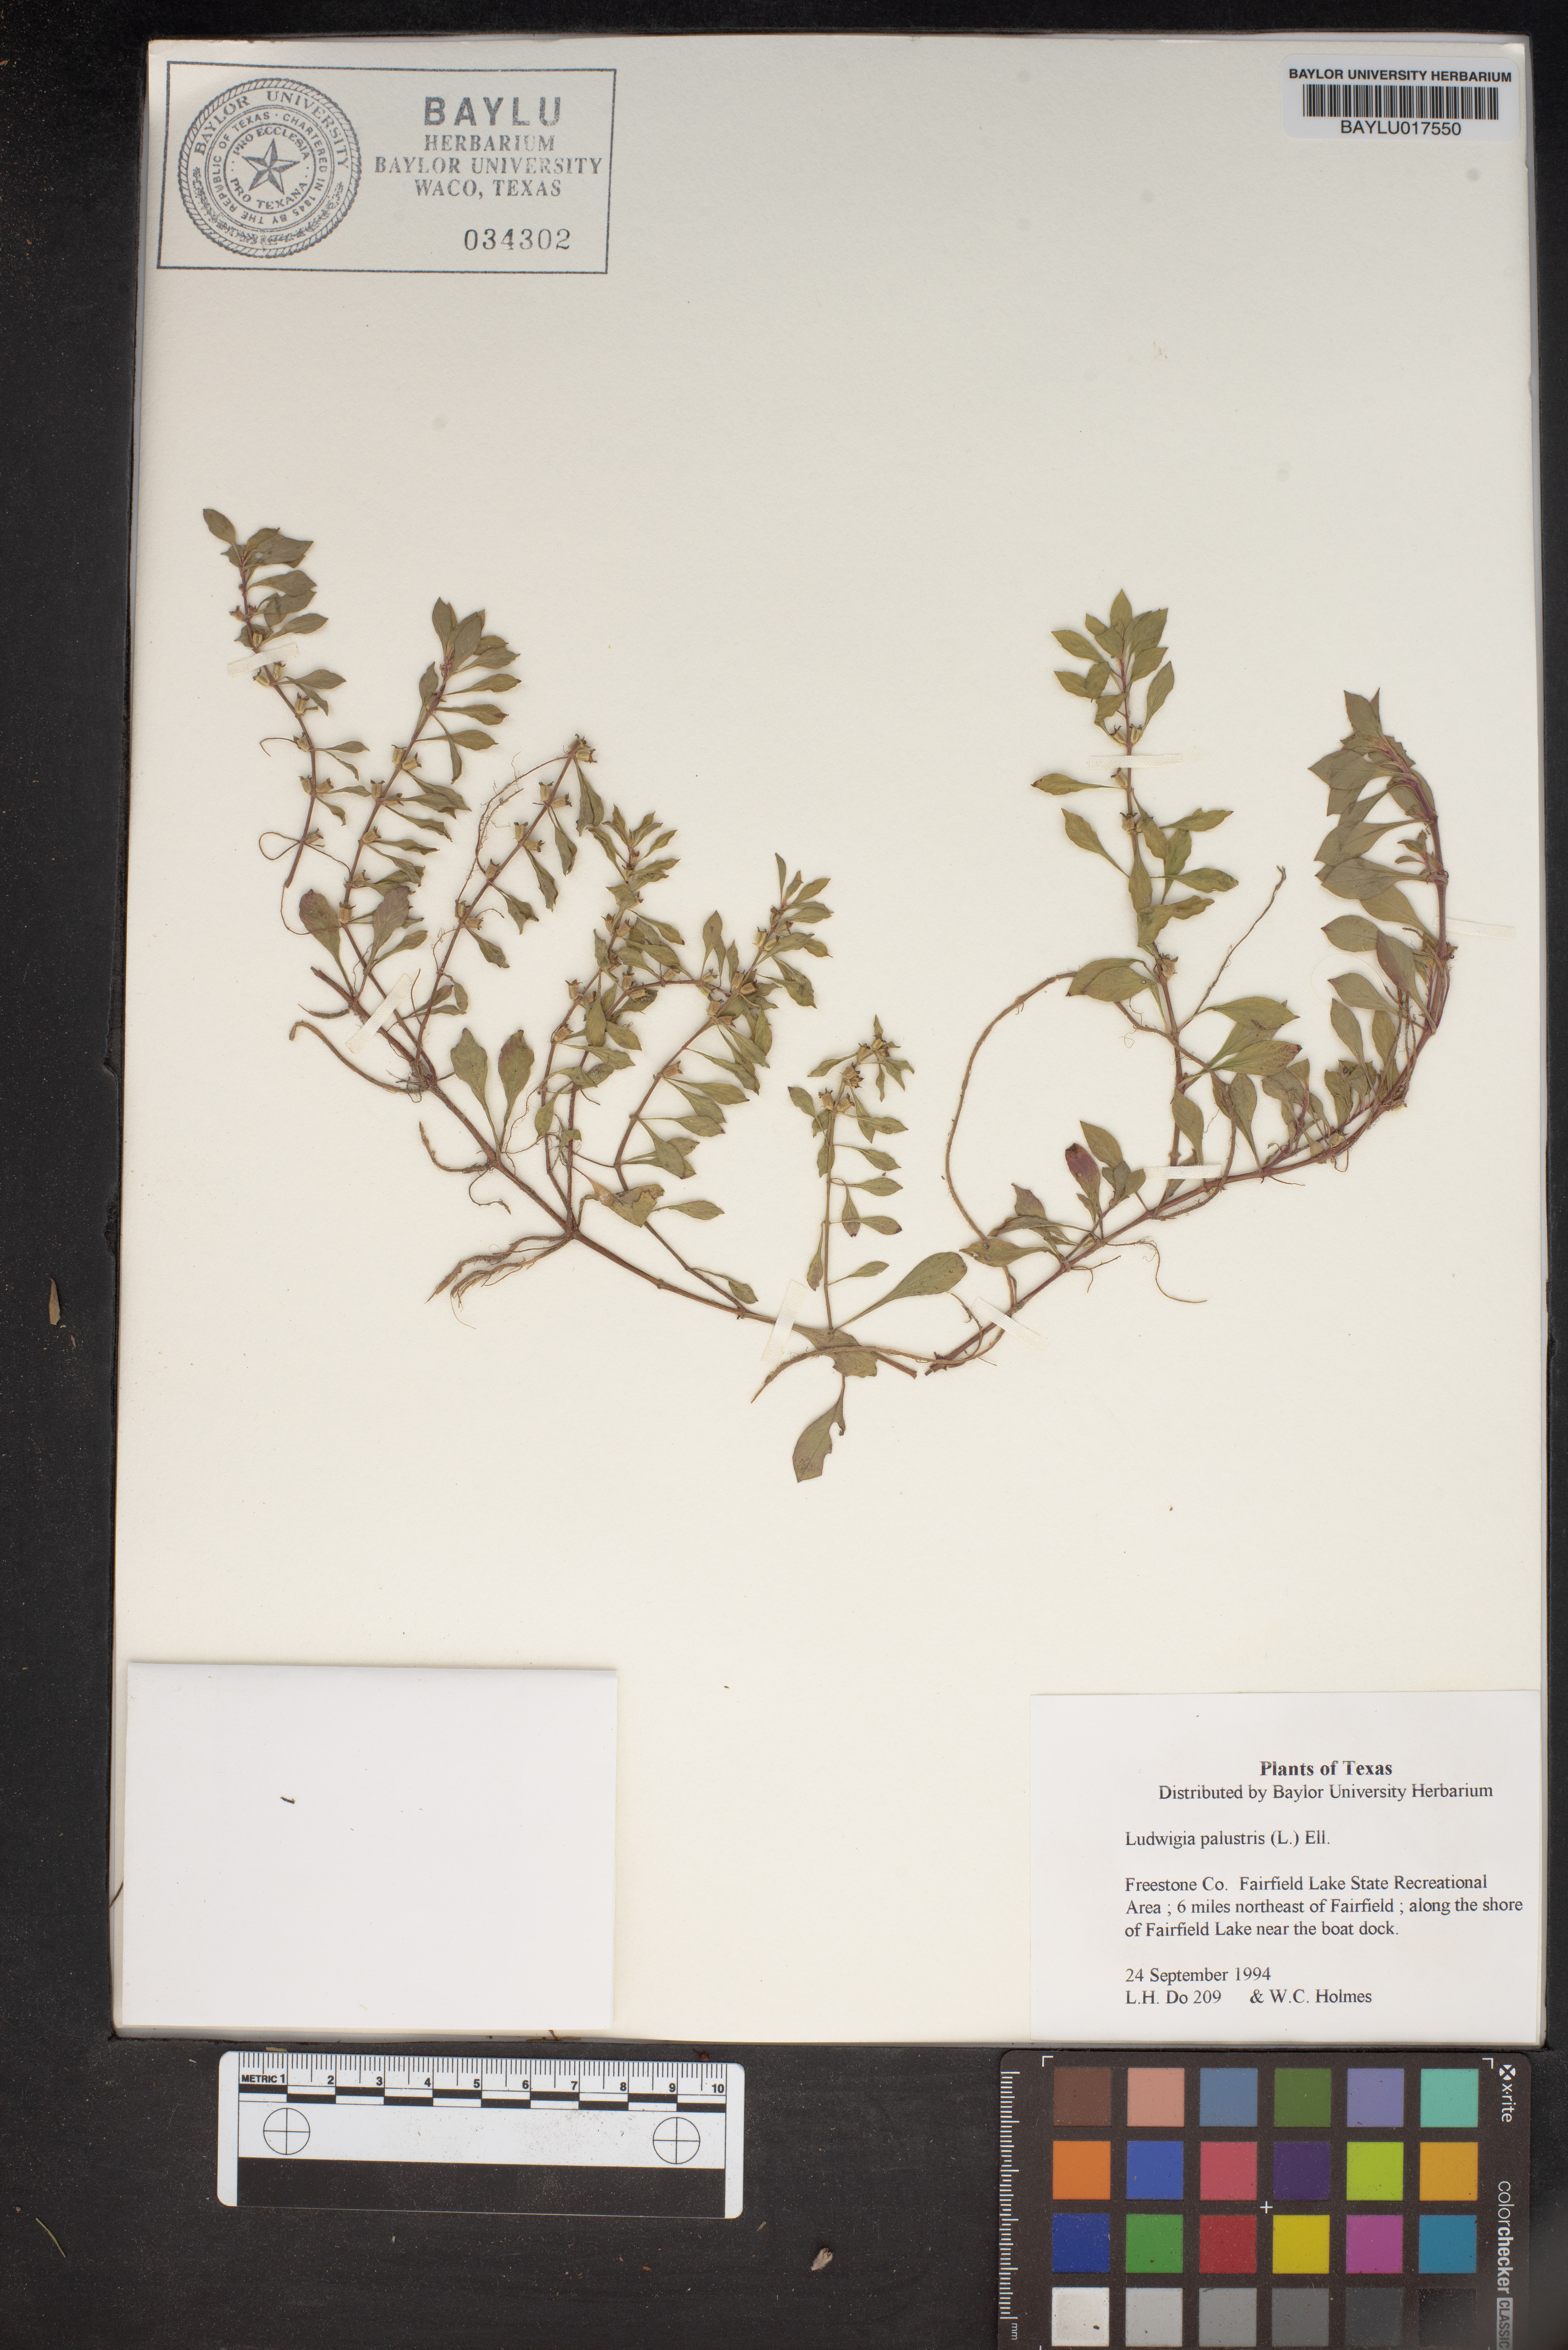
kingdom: Plantae
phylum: Tracheophyta
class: Magnoliopsida
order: Myrtales
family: Onagraceae
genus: Ludwigia
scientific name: Ludwigia palustris
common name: Hampshire-purslane
